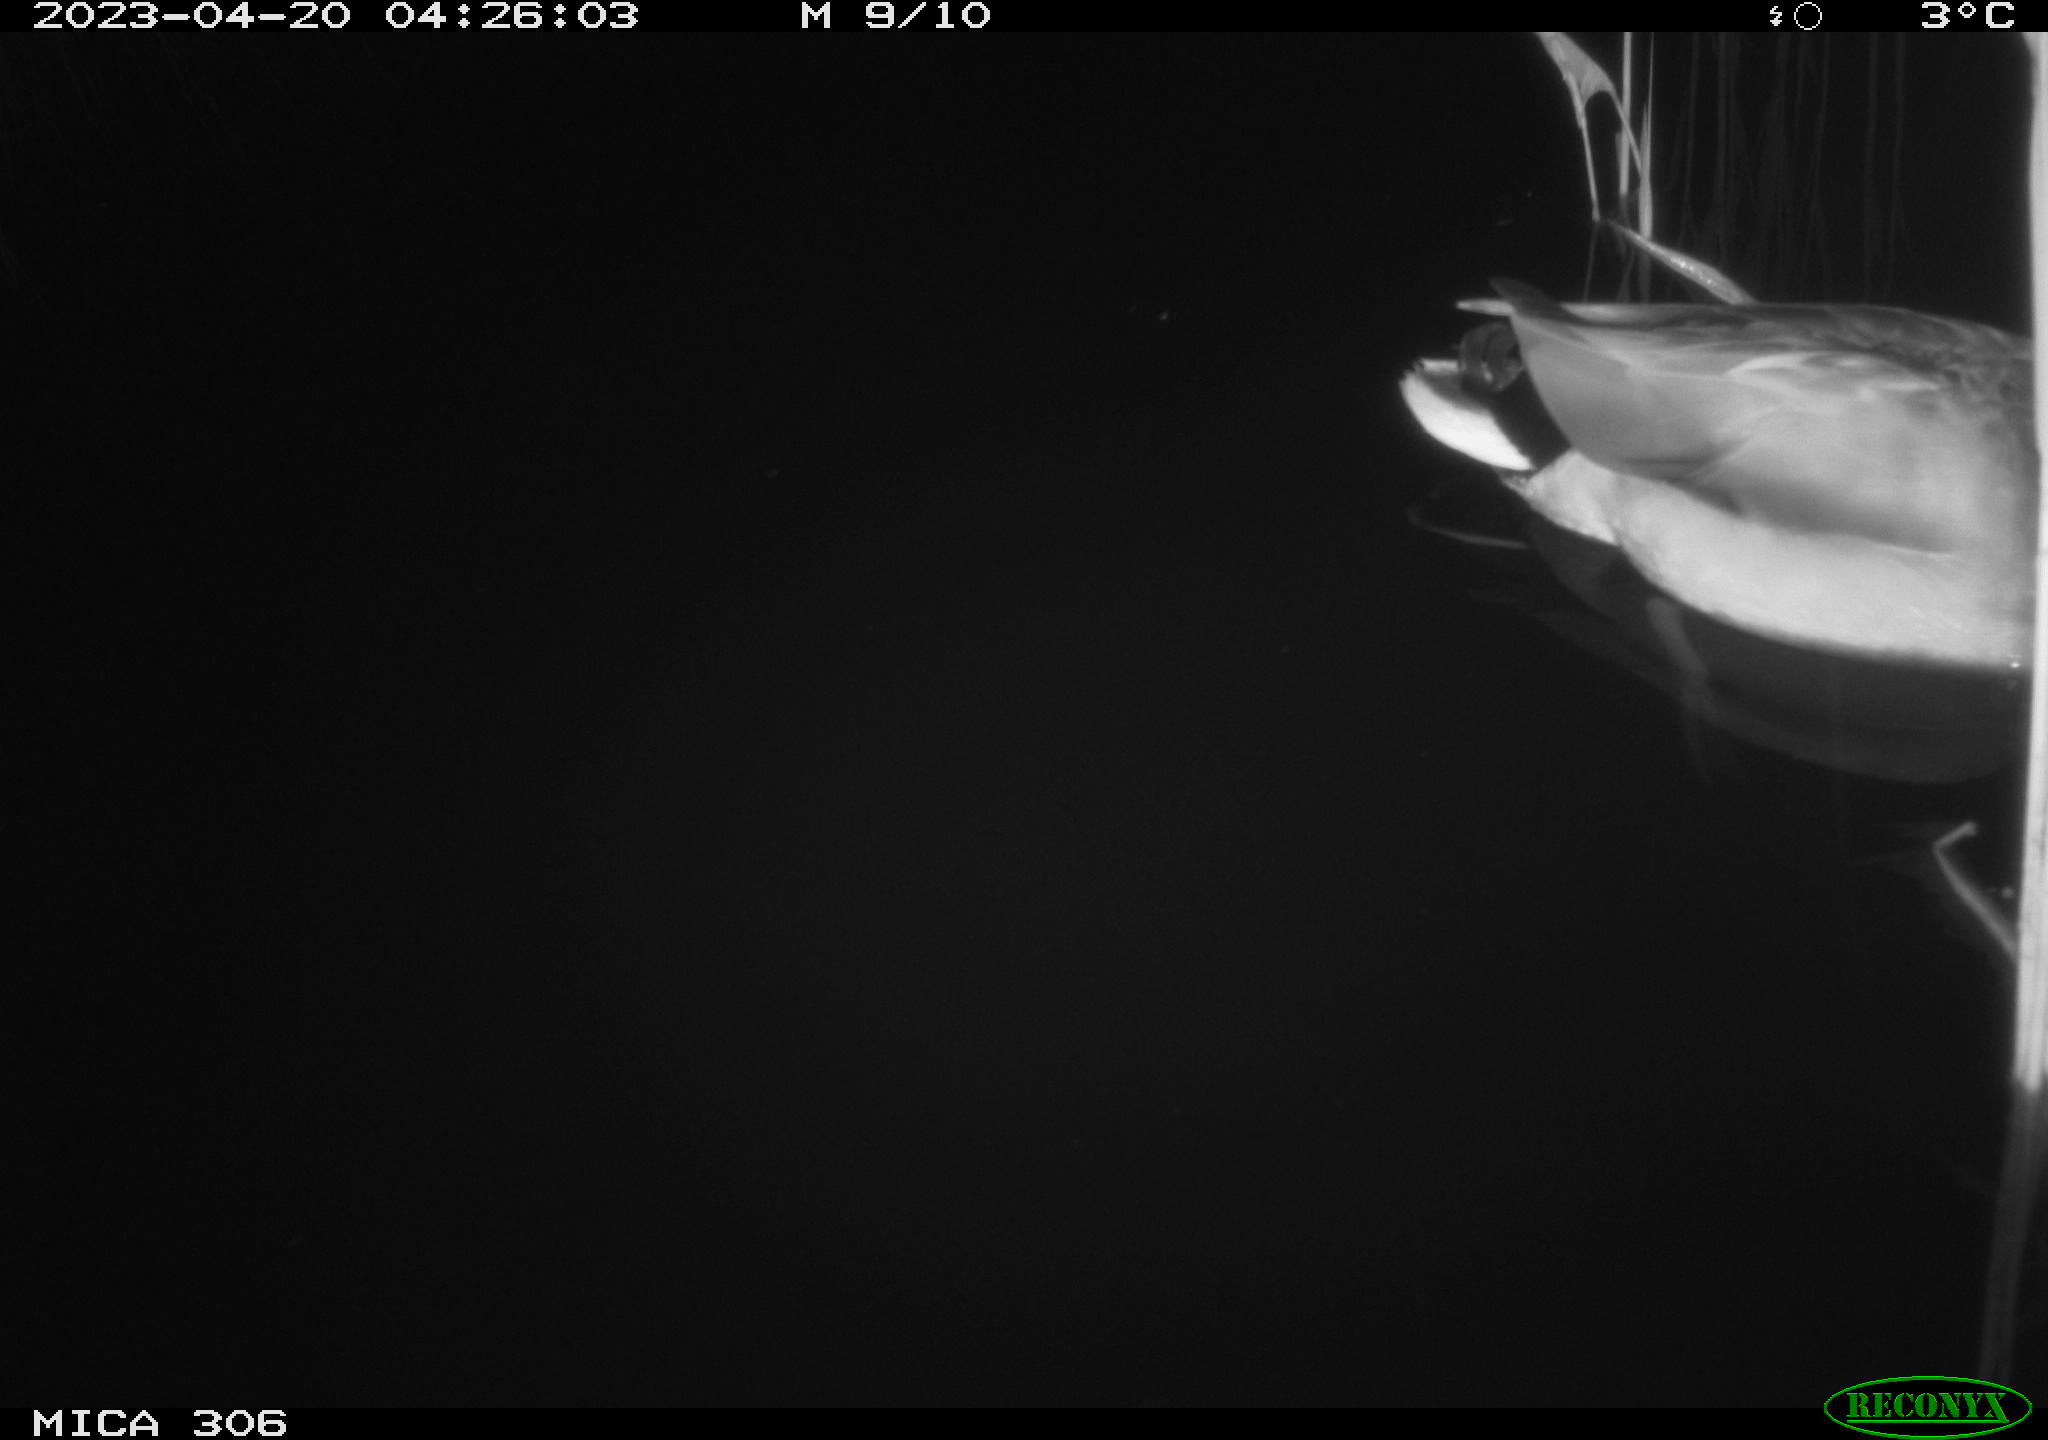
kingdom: Animalia
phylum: Chordata
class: Aves
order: Anseriformes
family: Anatidae
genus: Anas
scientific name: Anas
